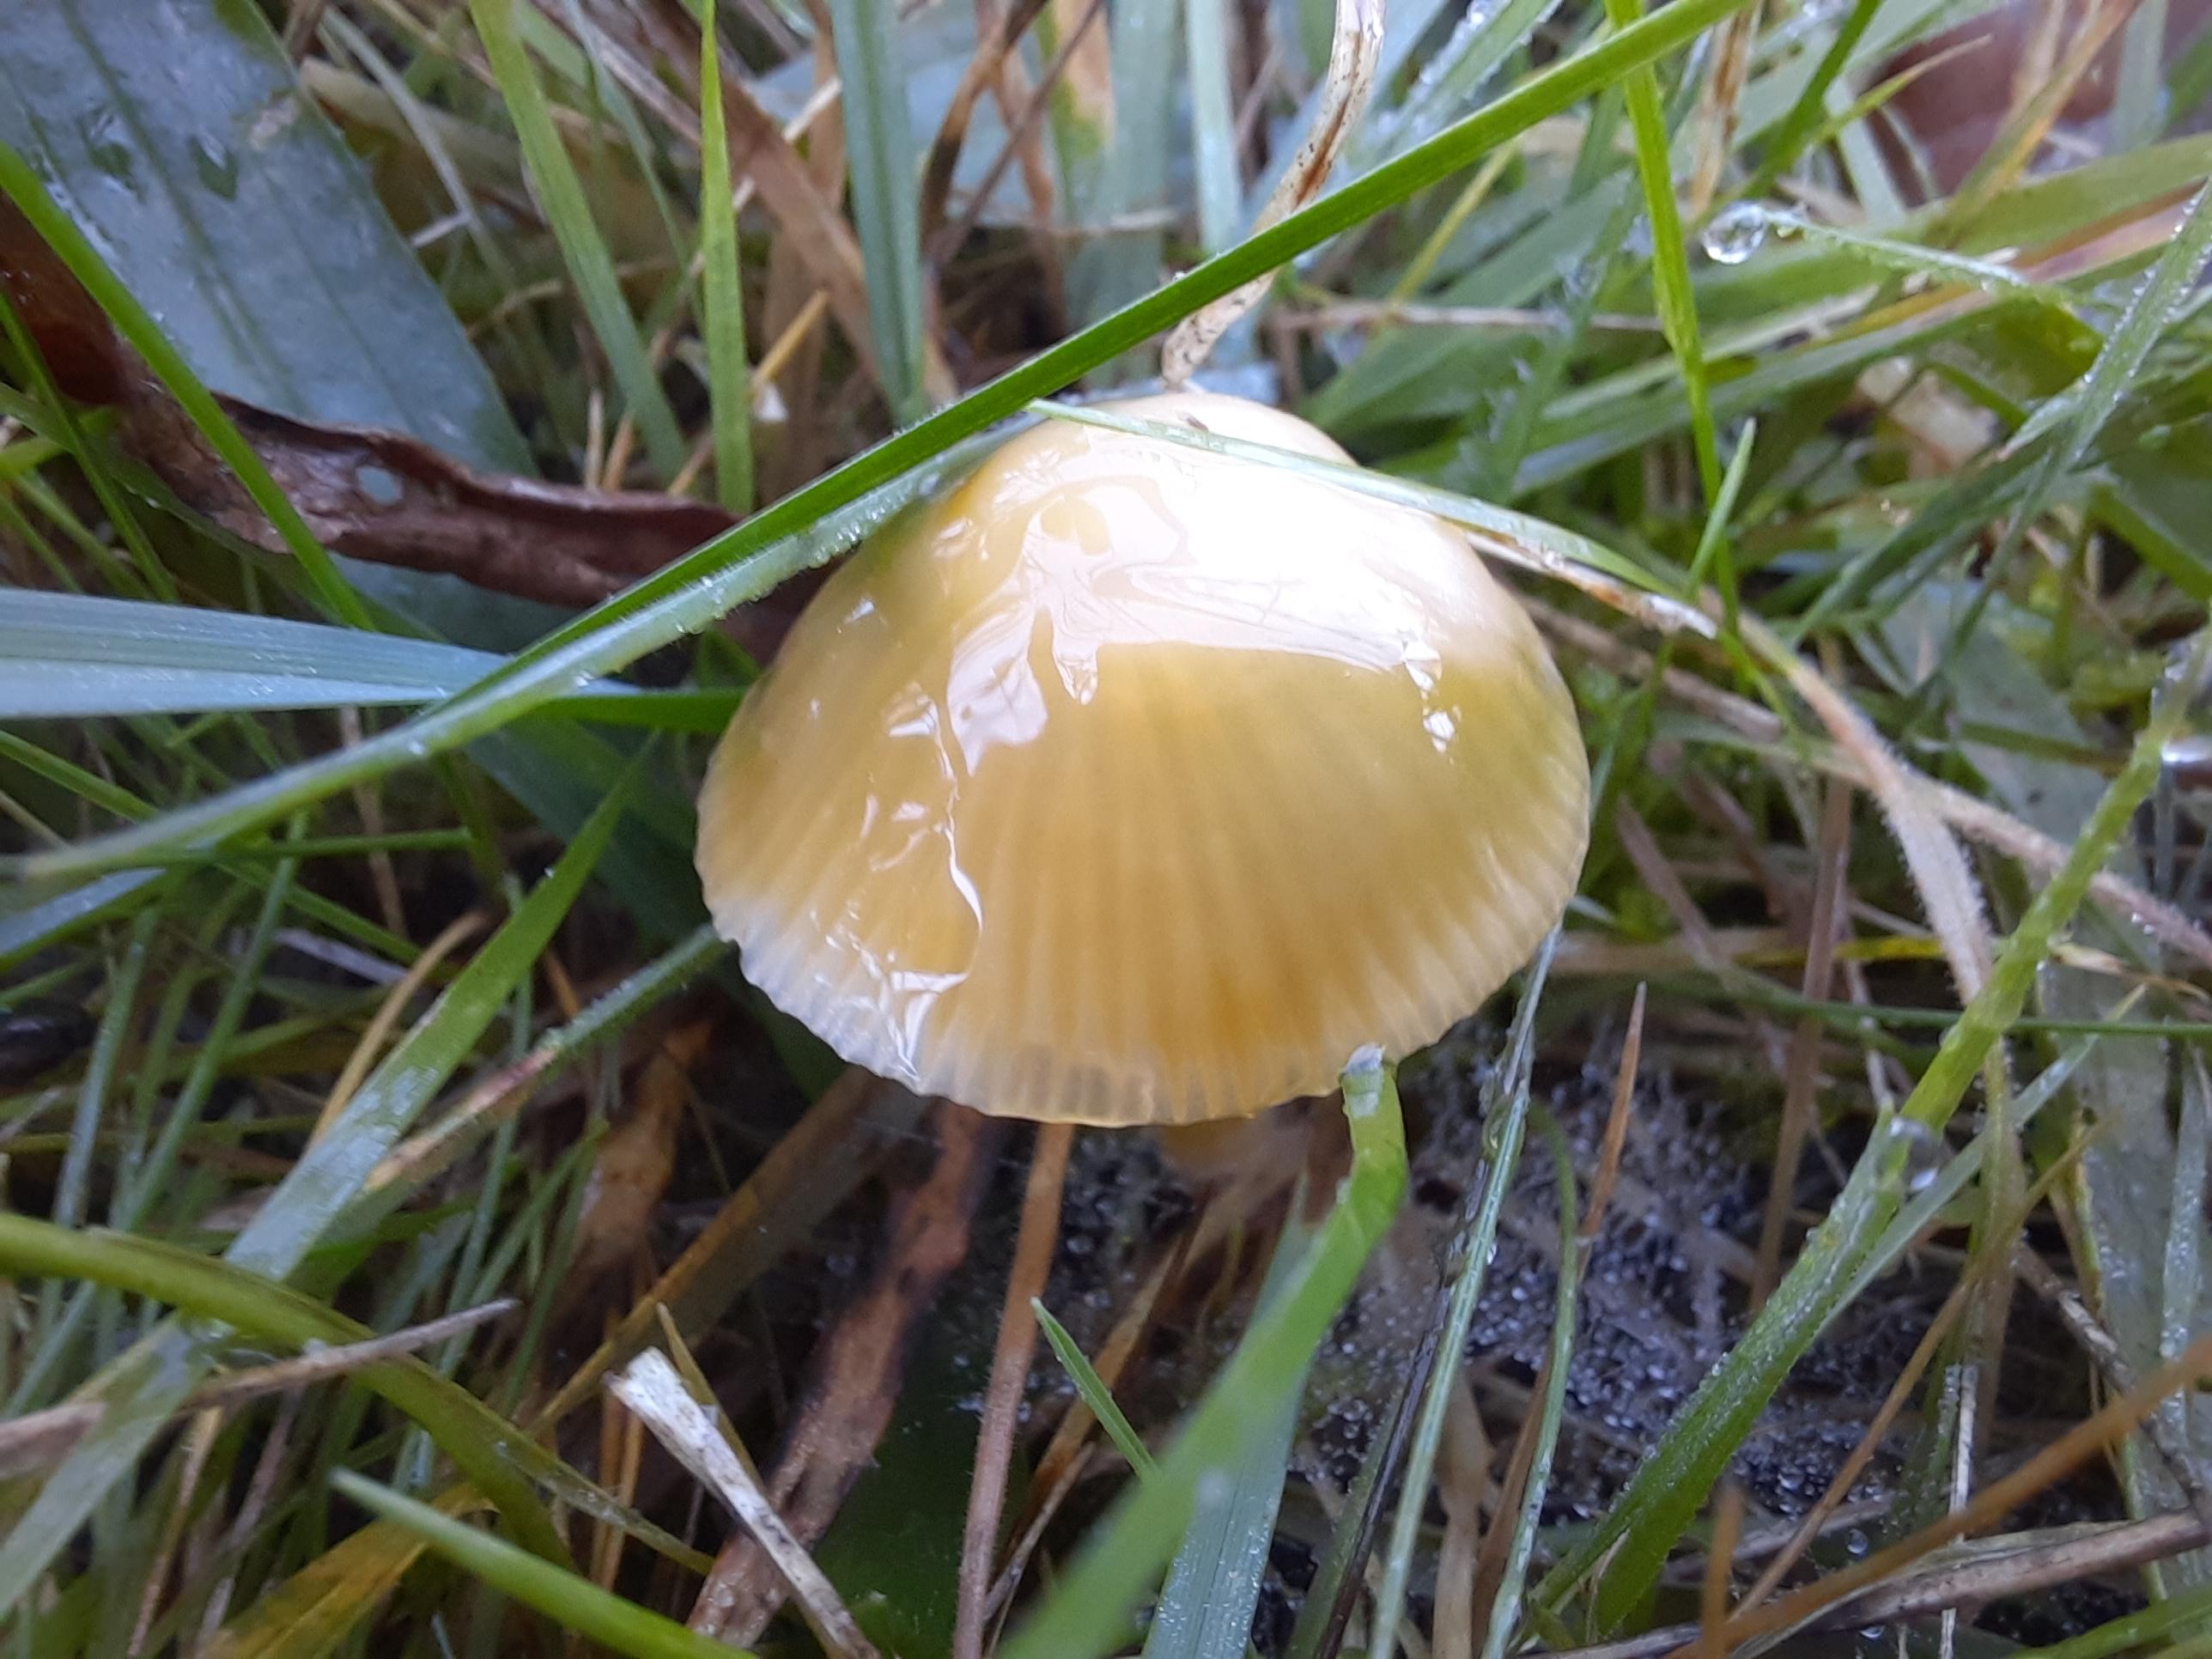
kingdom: Fungi
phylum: Basidiomycota
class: Agaricomycetes
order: Agaricales
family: Hygrophoraceae
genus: Gliophorus
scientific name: Gliophorus psittacinus
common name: papegøje-vokshat
